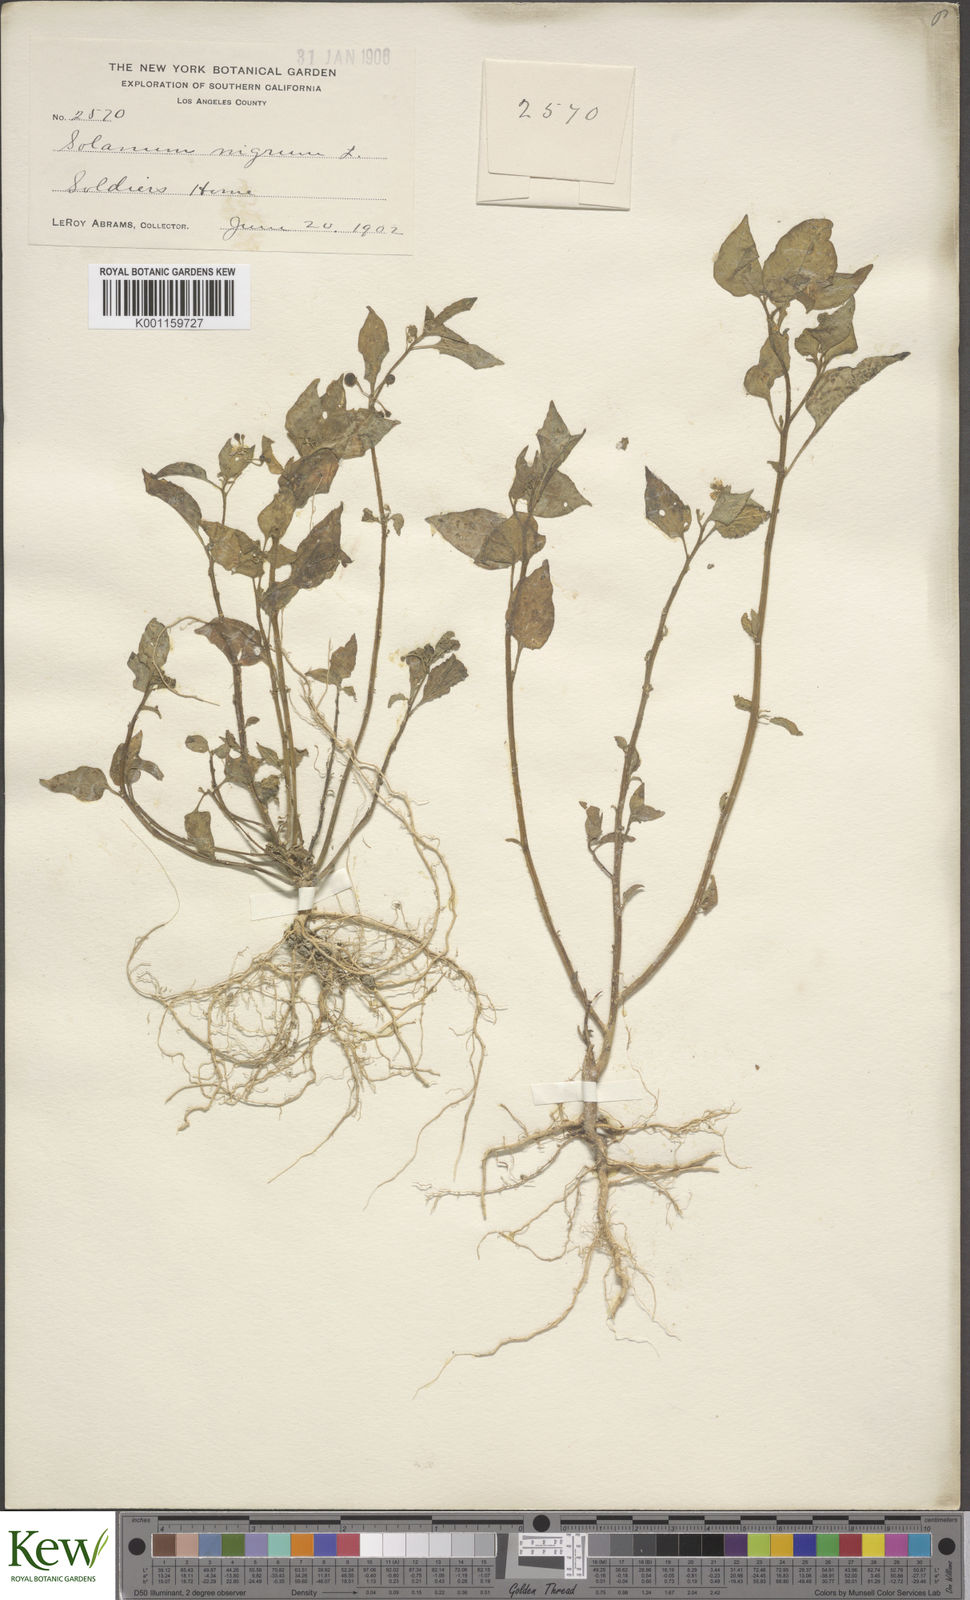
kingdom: Plantae
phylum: Tracheophyta
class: Magnoliopsida
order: Solanales
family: Solanaceae
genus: Solanum
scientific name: Solanum americanum
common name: American black nightshade
